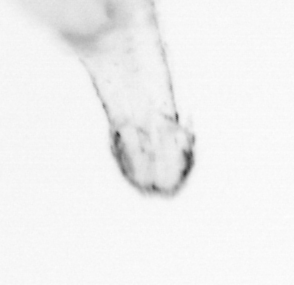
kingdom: Animalia
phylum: Chaetognatha
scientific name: Chaetognatha
